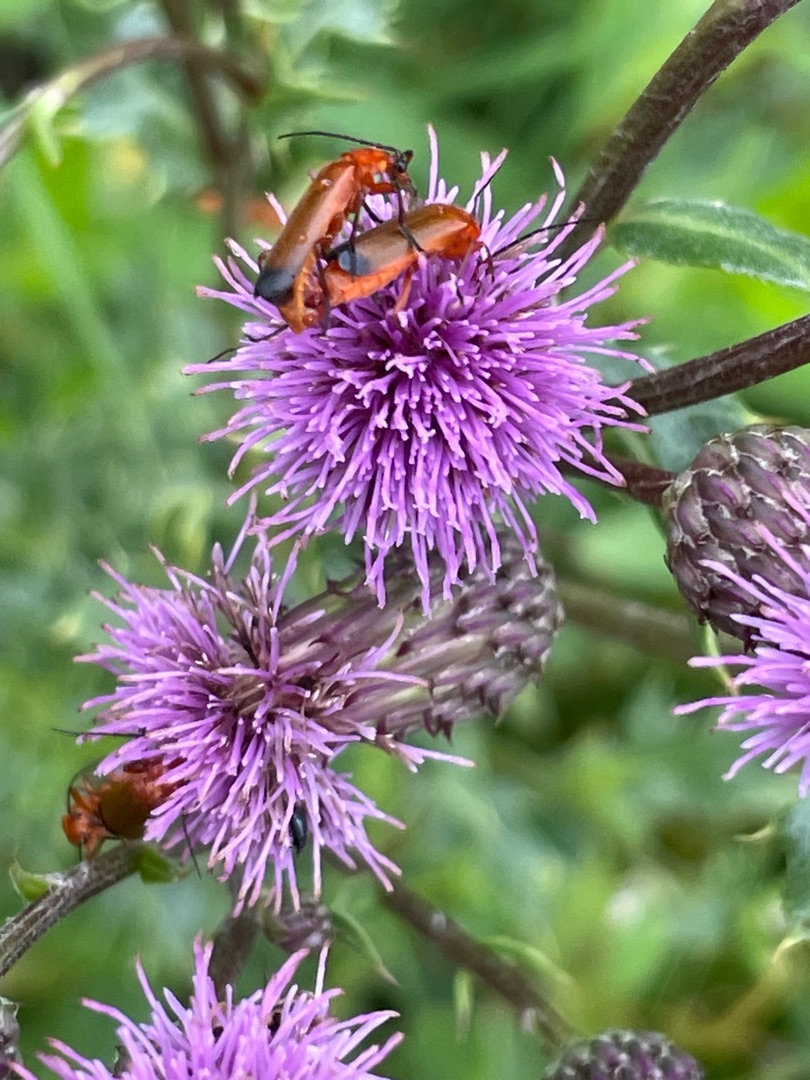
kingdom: Animalia
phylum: Arthropoda
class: Insecta
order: Coleoptera
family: Cantharidae
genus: Rhagonycha
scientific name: Rhagonycha fulva
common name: Præstebille
